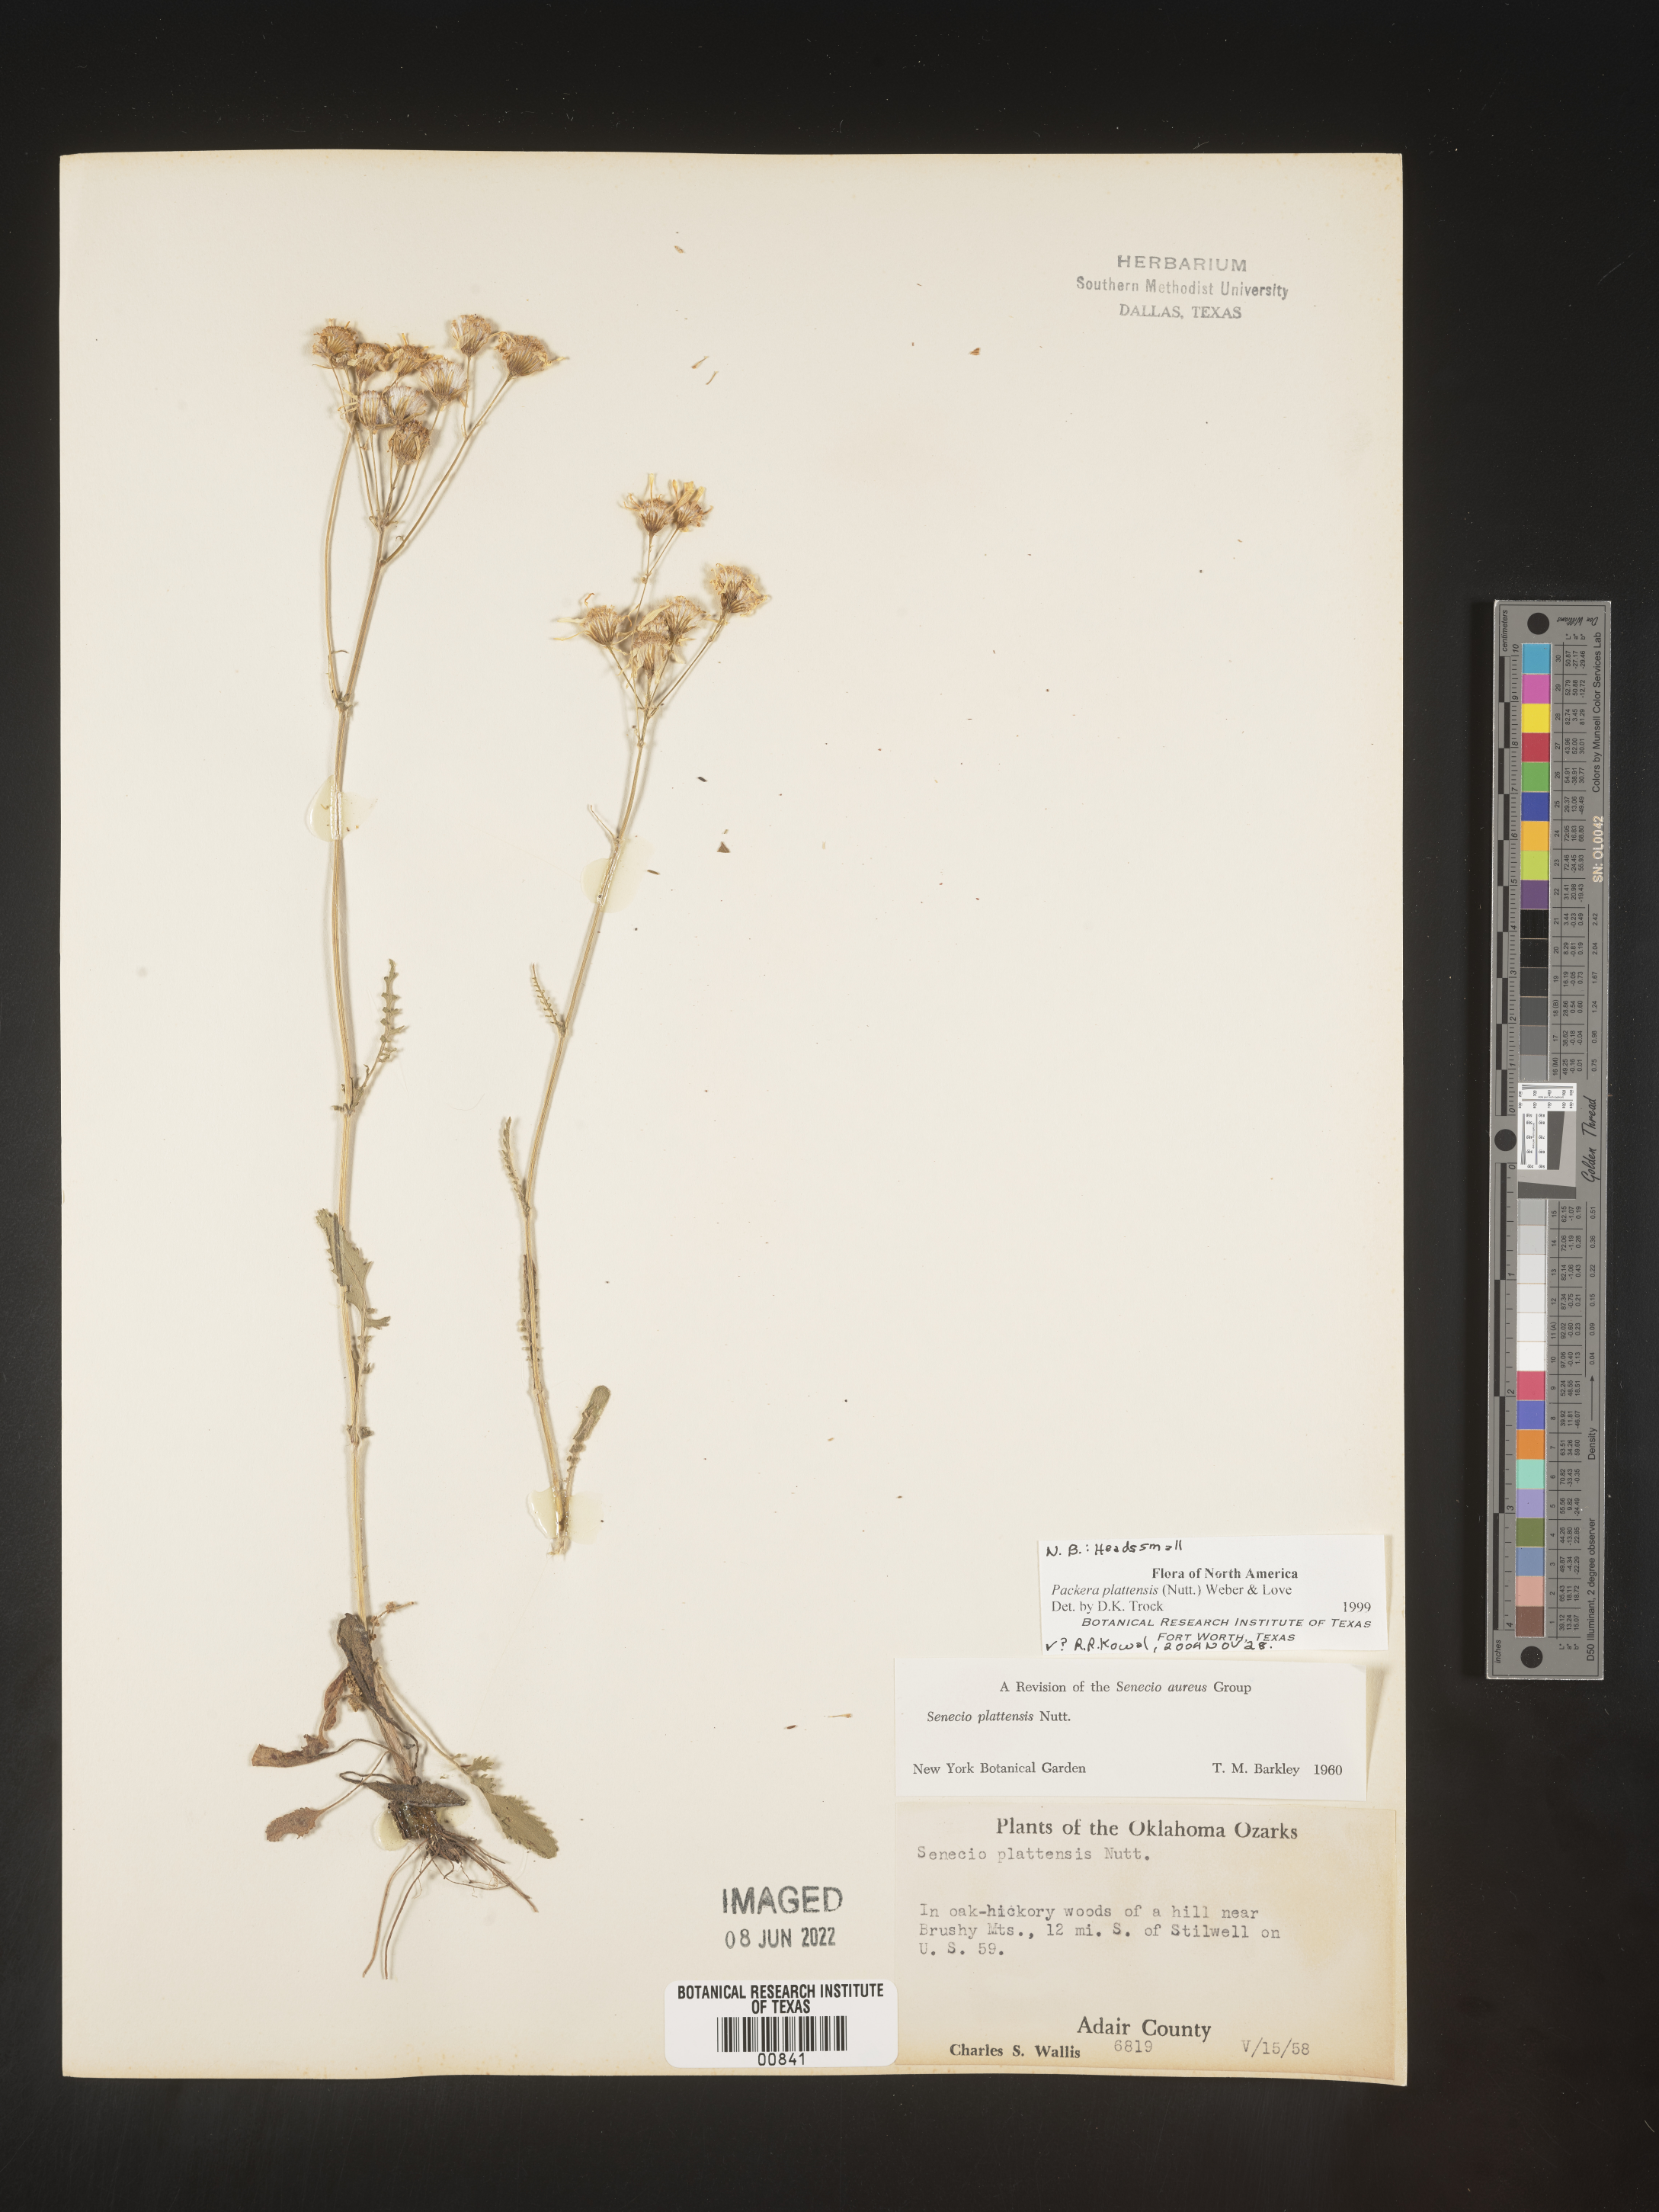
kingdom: Plantae
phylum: Tracheophyta
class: Magnoliopsida
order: Asterales
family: Asteraceae
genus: Packera
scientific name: Packera plattensis
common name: Prairie groundsel
